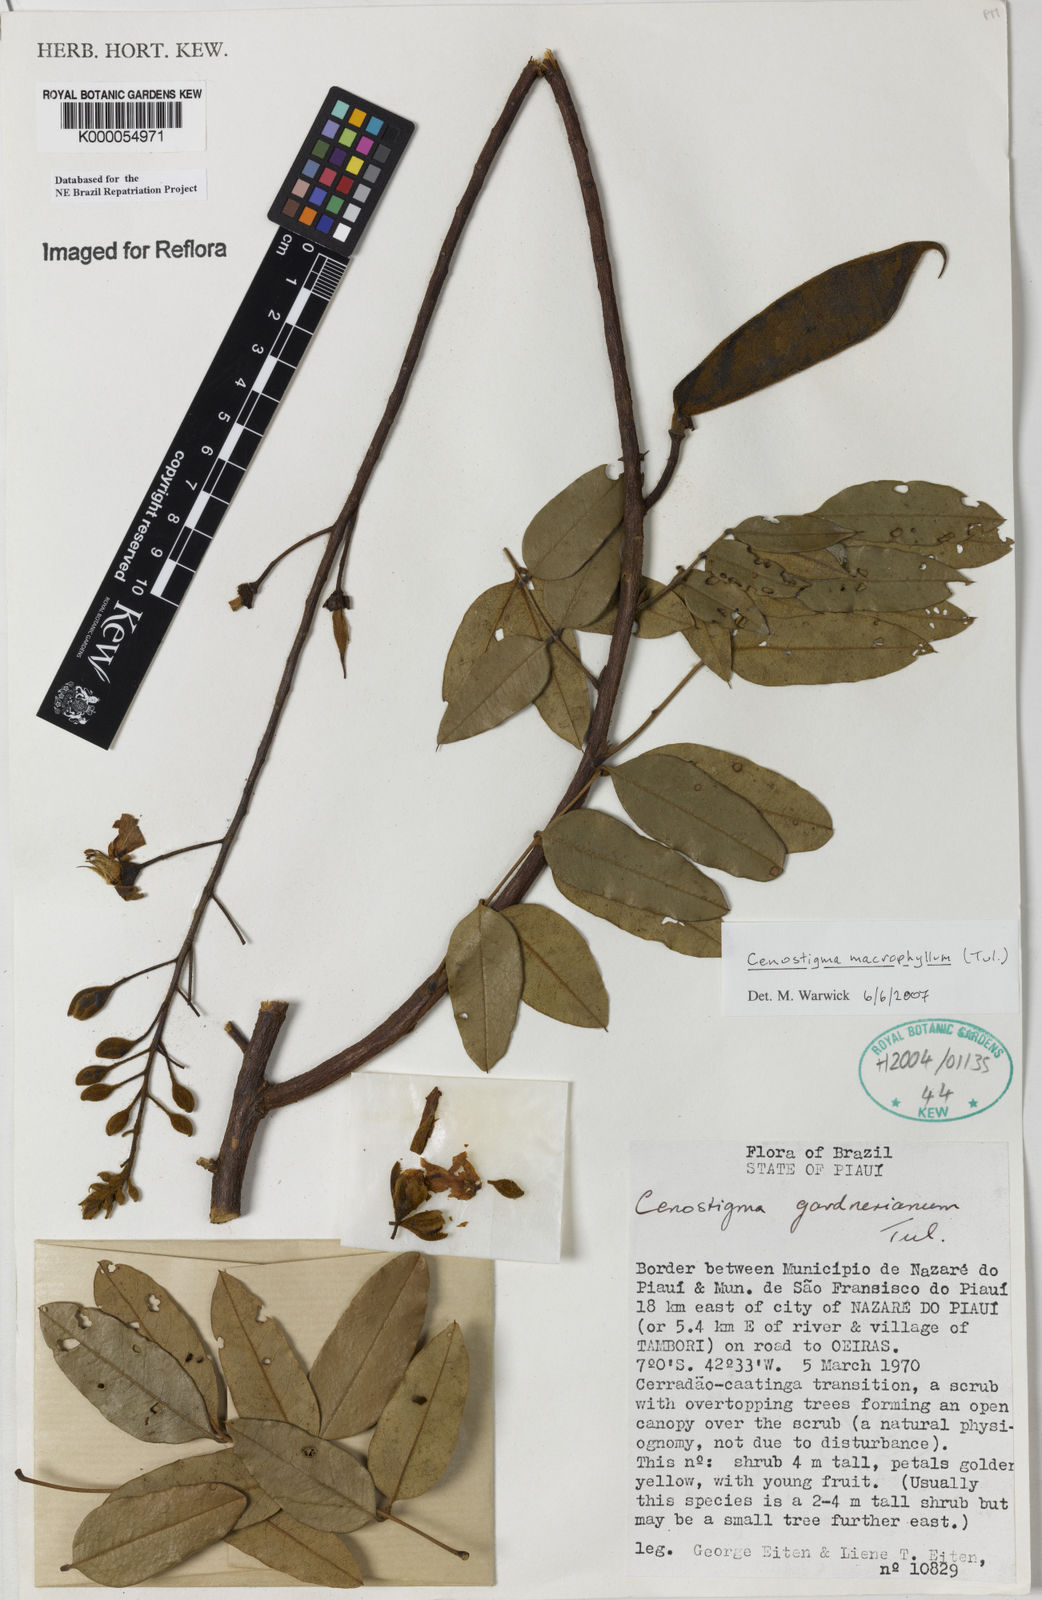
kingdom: Plantae
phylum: Tracheophyta
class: Magnoliopsida
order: Fabales
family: Fabaceae
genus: Cenostigma
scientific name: Cenostigma macrophyllum
